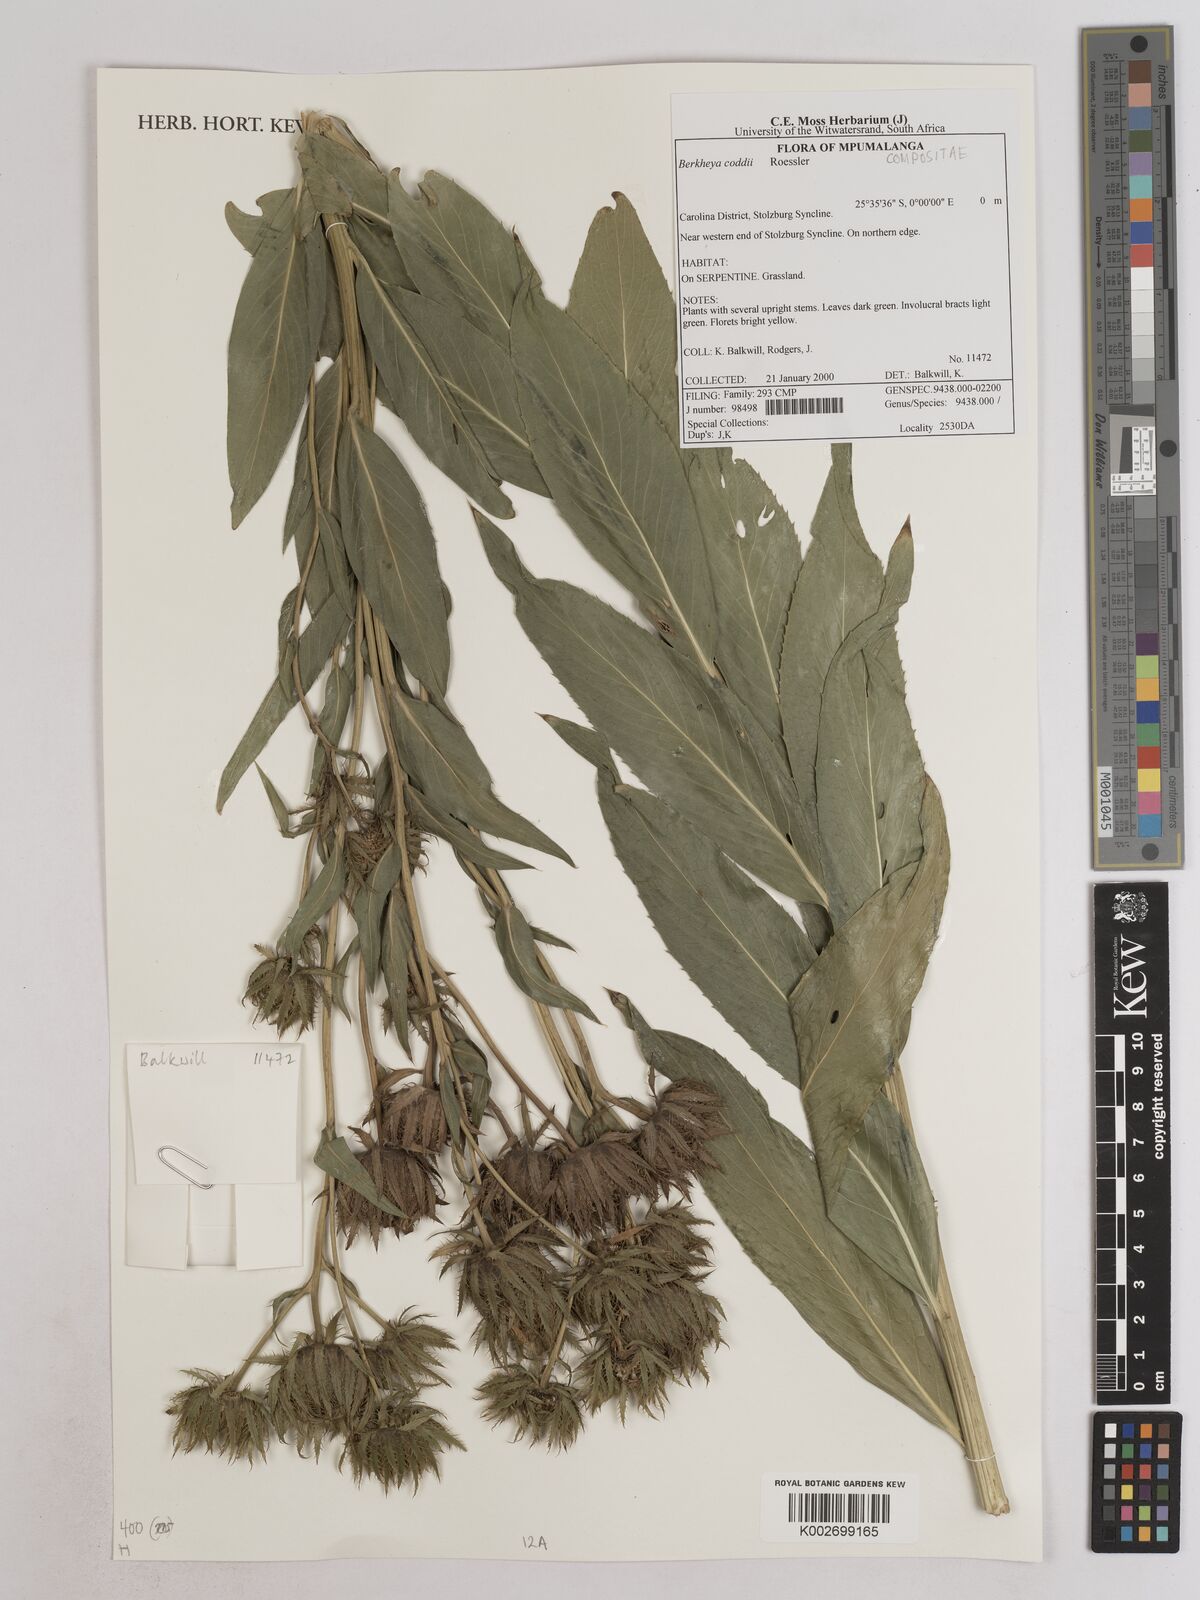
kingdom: Plantae
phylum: Tracheophyta
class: Magnoliopsida
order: Asterales
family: Asteraceae
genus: Berkheya
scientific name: Berkheya coddii
